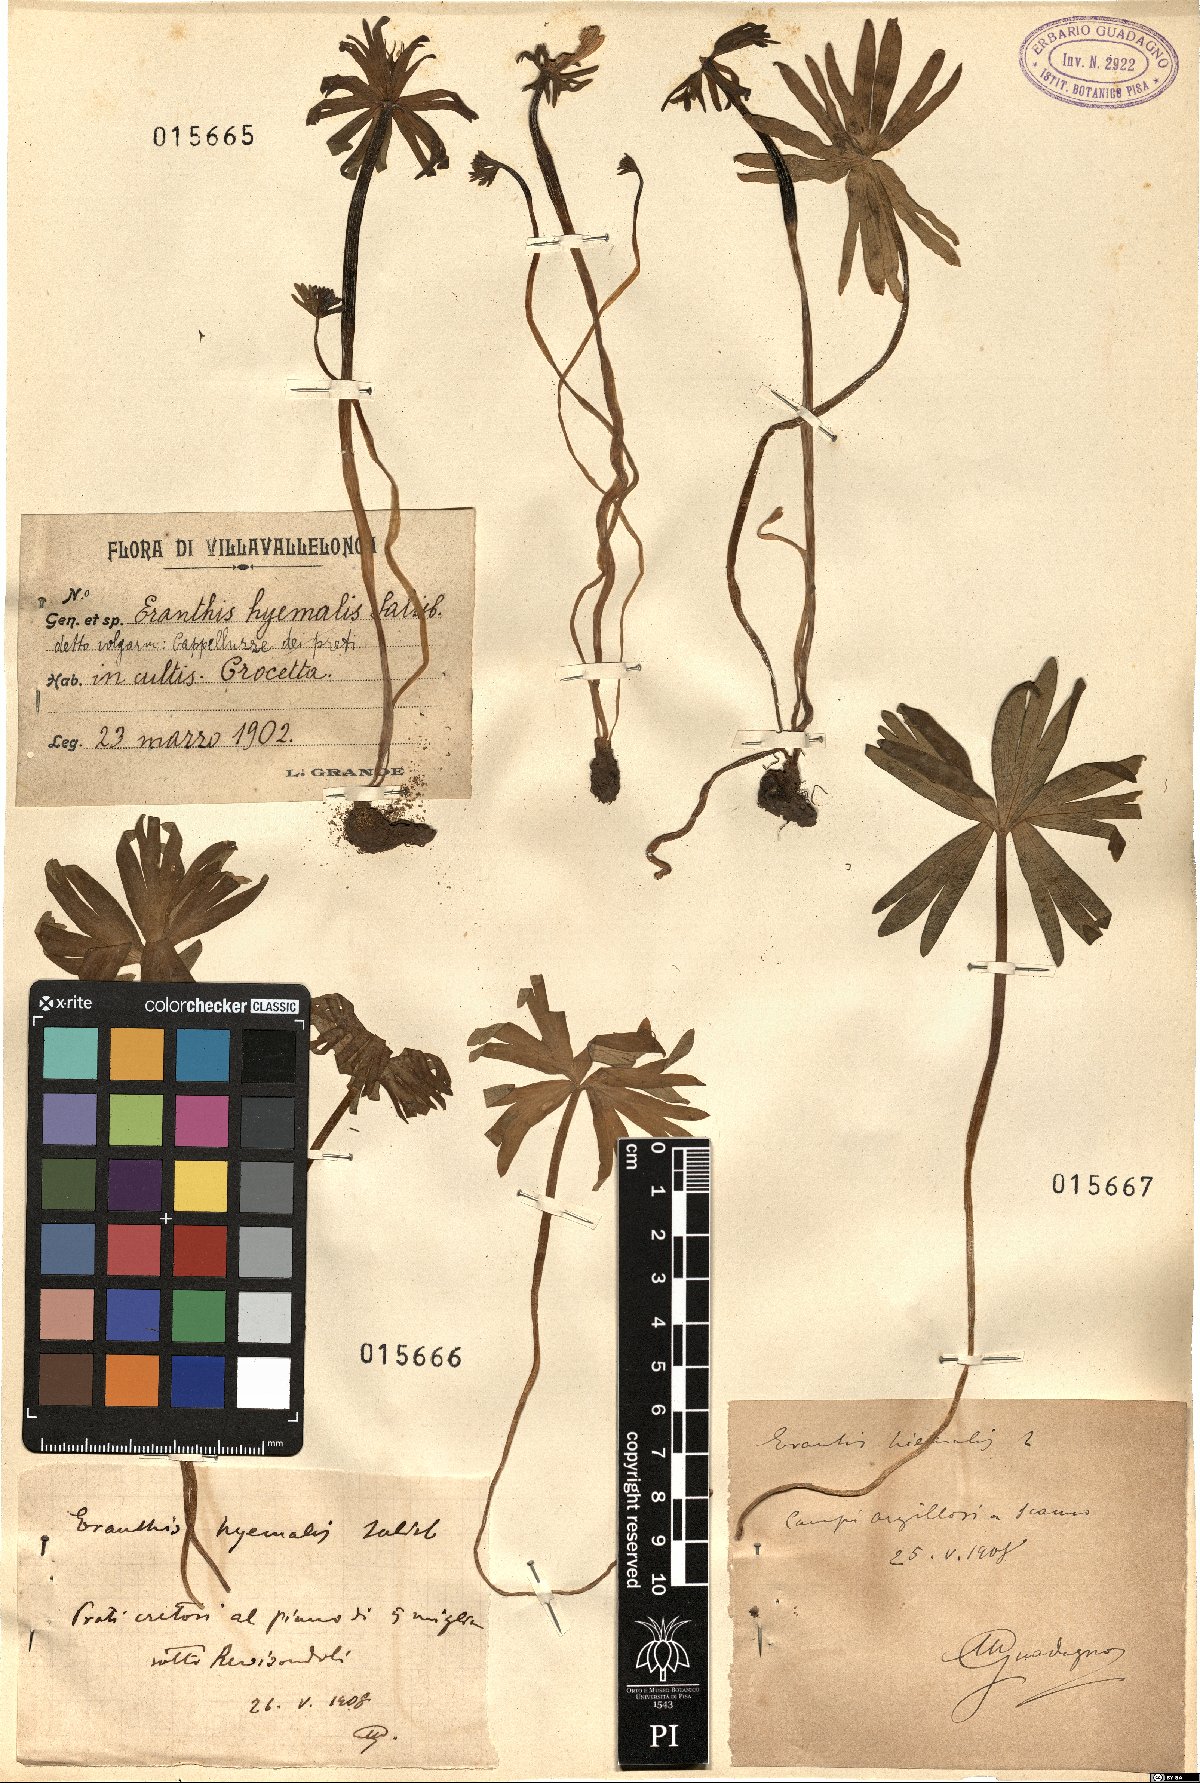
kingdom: Plantae
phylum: Tracheophyta
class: Magnoliopsida
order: Ranunculales
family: Ranunculaceae
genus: Eranthis
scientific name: Eranthis hyemalis
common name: Winter aconite
